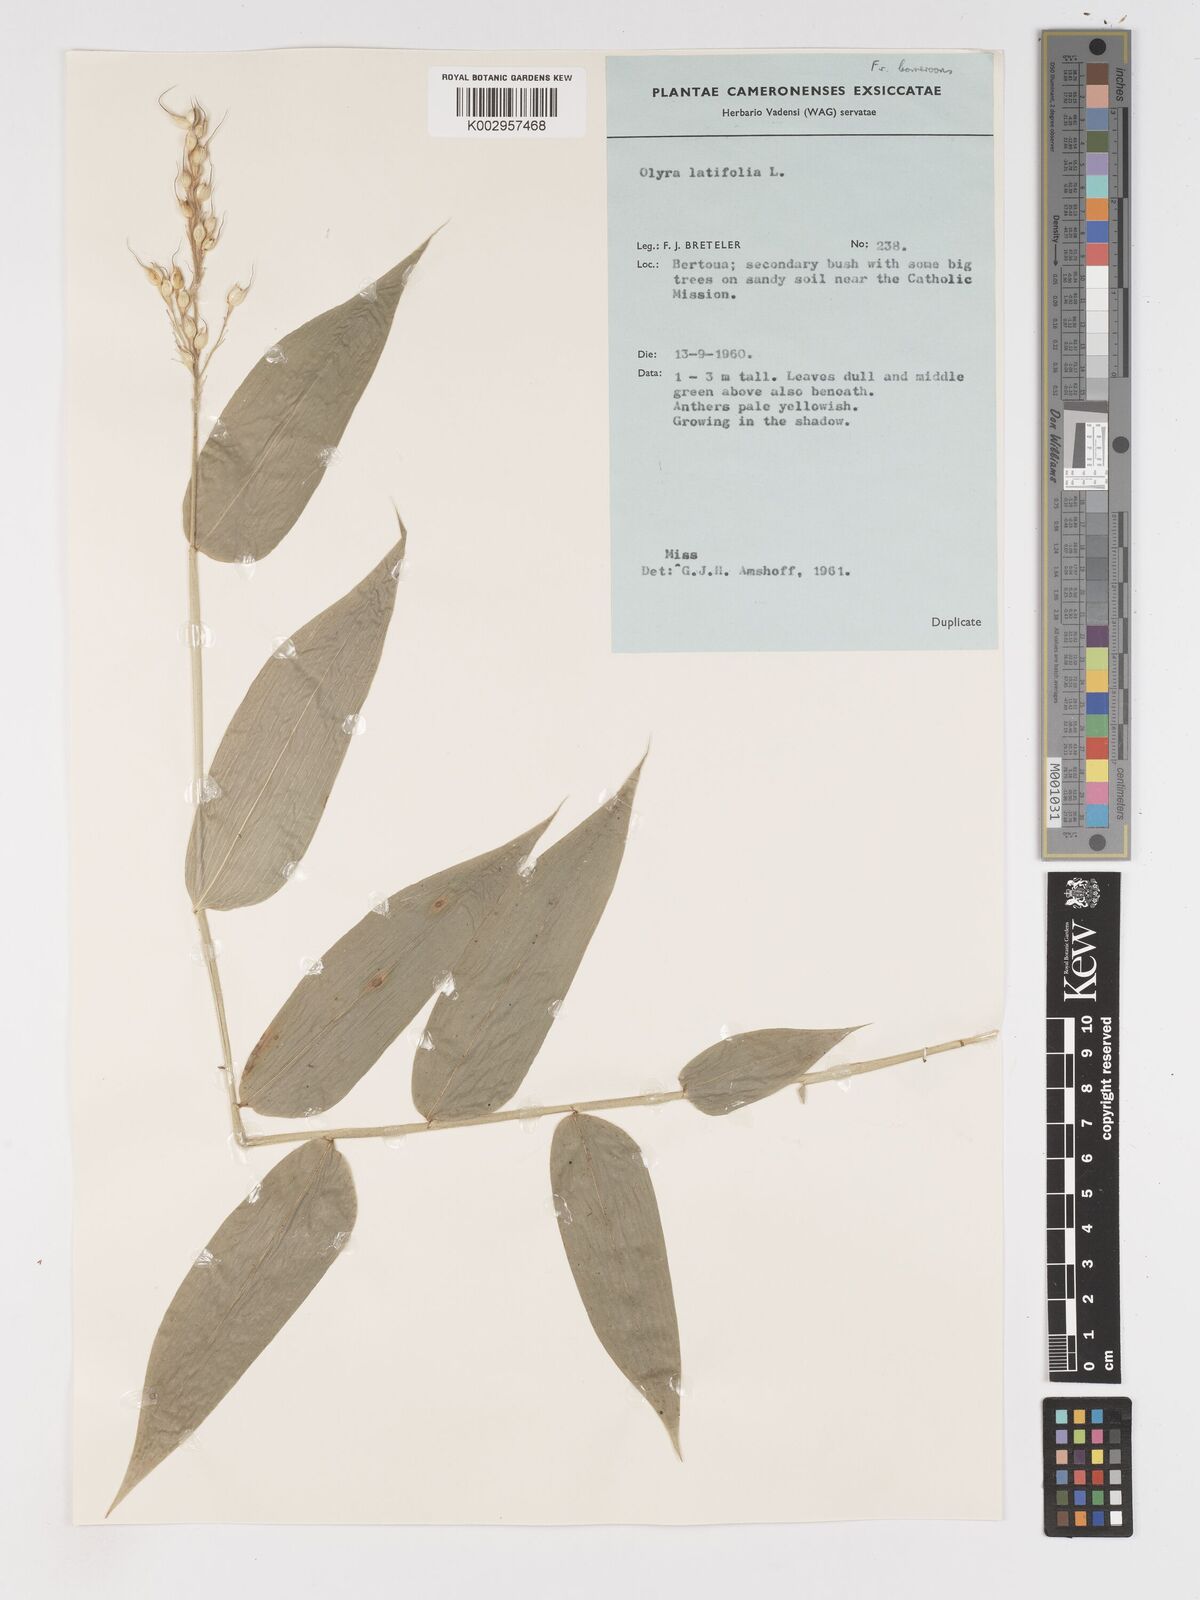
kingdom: Plantae
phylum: Tracheophyta
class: Liliopsida
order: Poales
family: Poaceae
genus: Olyra
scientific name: Olyra latifolia
